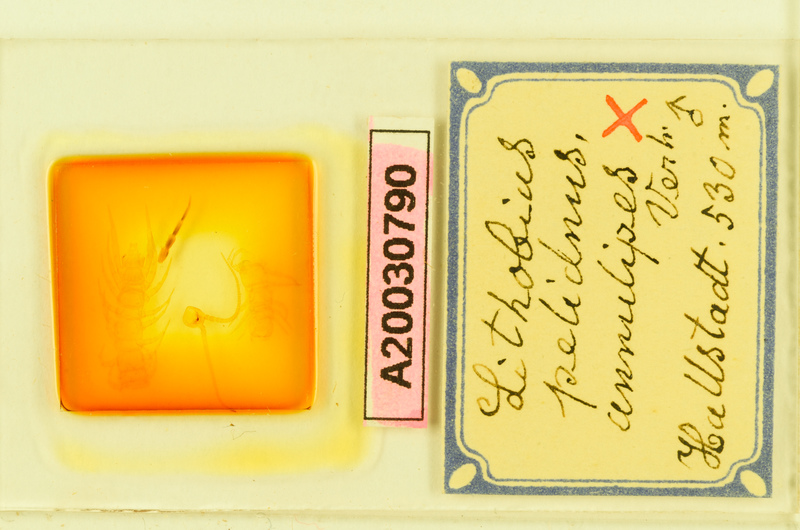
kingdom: Animalia
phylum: Arthropoda
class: Chilopoda
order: Lithobiomorpha
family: Lithobiidae
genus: Lithobius
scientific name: Lithobius pelidnus
